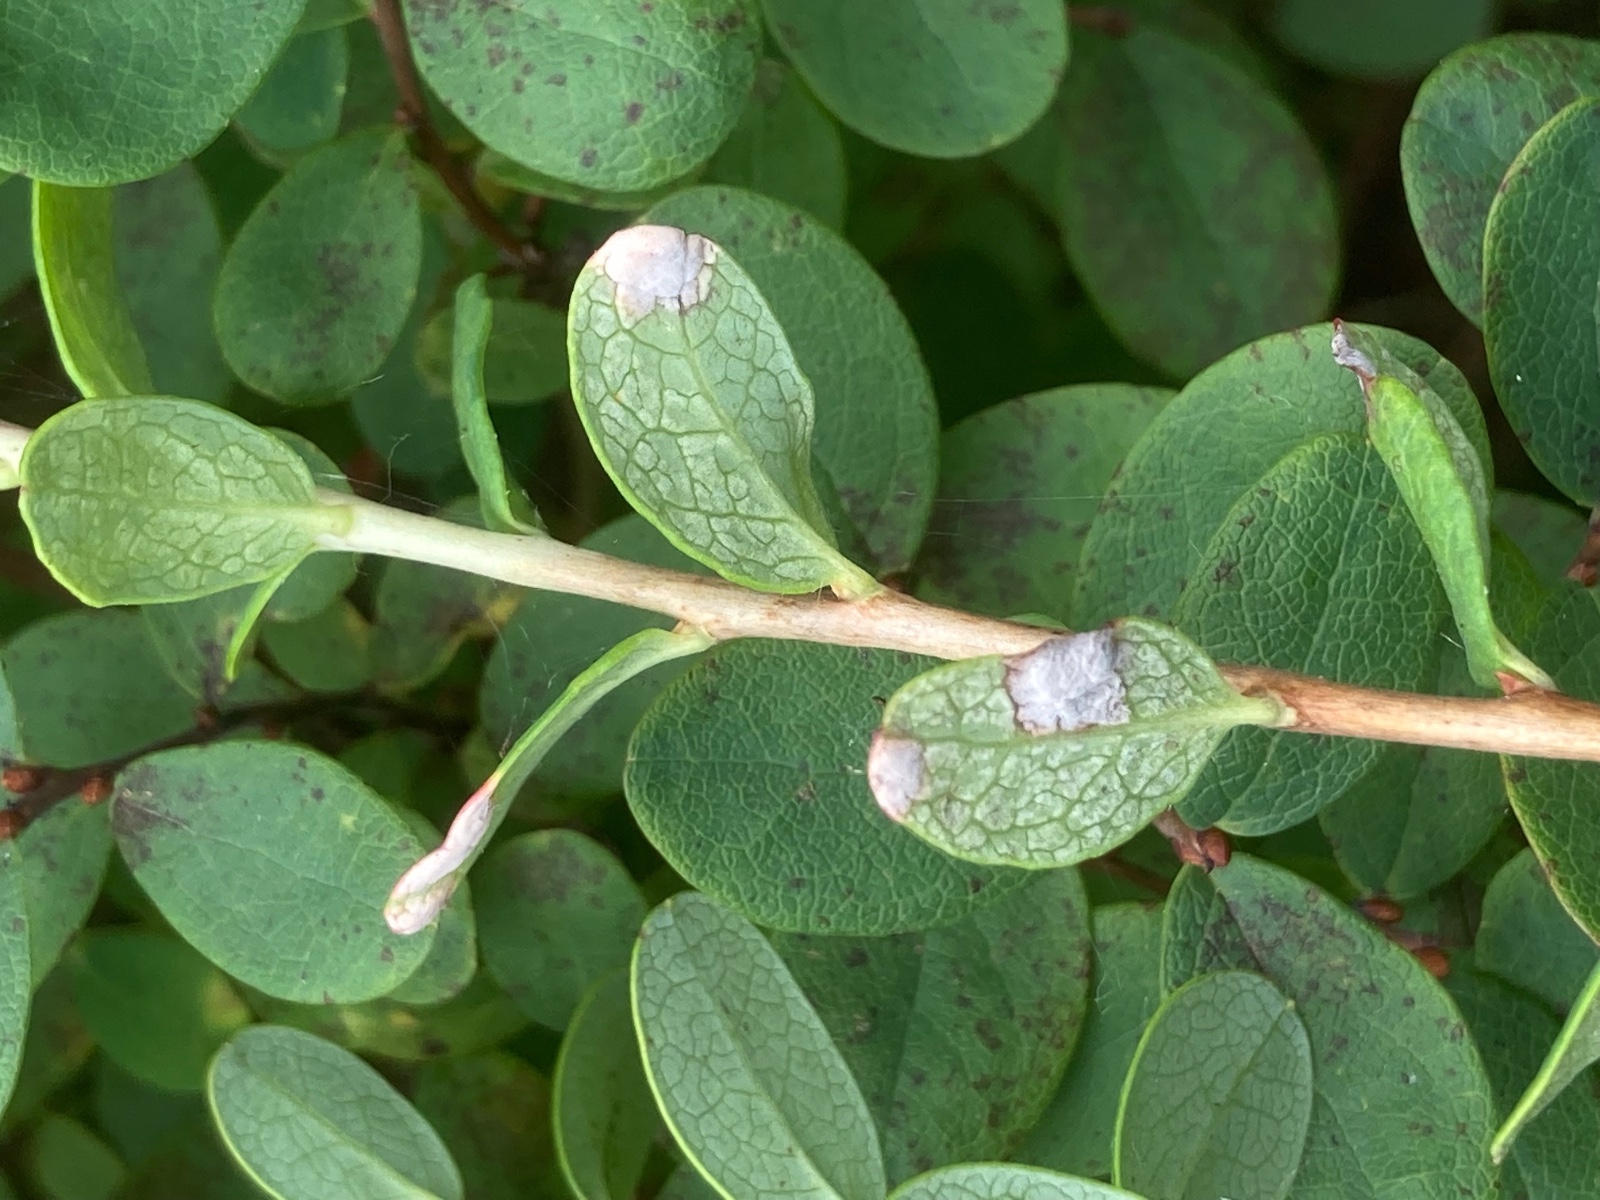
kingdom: Fungi
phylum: Basidiomycota
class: Exobasidiomycetes
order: Exobasidiales
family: Exobasidiaceae
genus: Exobasidium
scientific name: Exobasidium pachysporum
